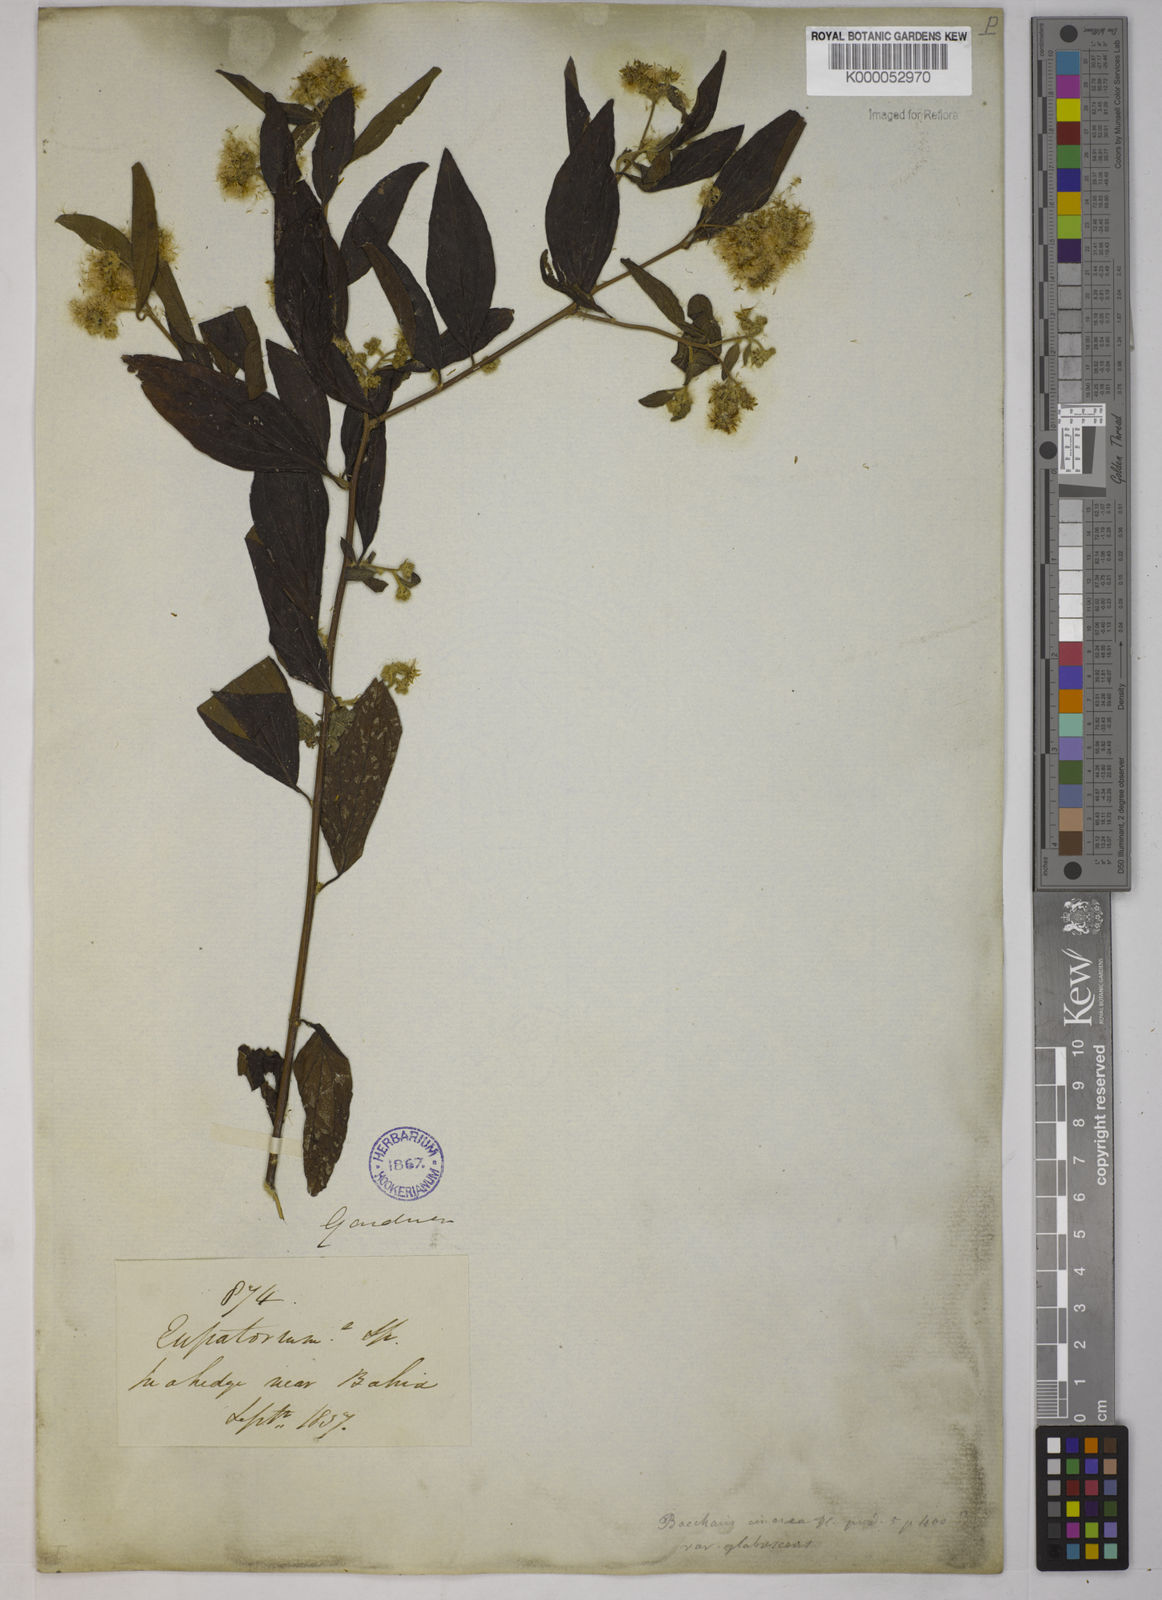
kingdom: Plantae
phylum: Tracheophyta
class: Magnoliopsida
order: Asterales
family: Asteraceae
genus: Baccharis
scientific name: Baccharis trinervis
